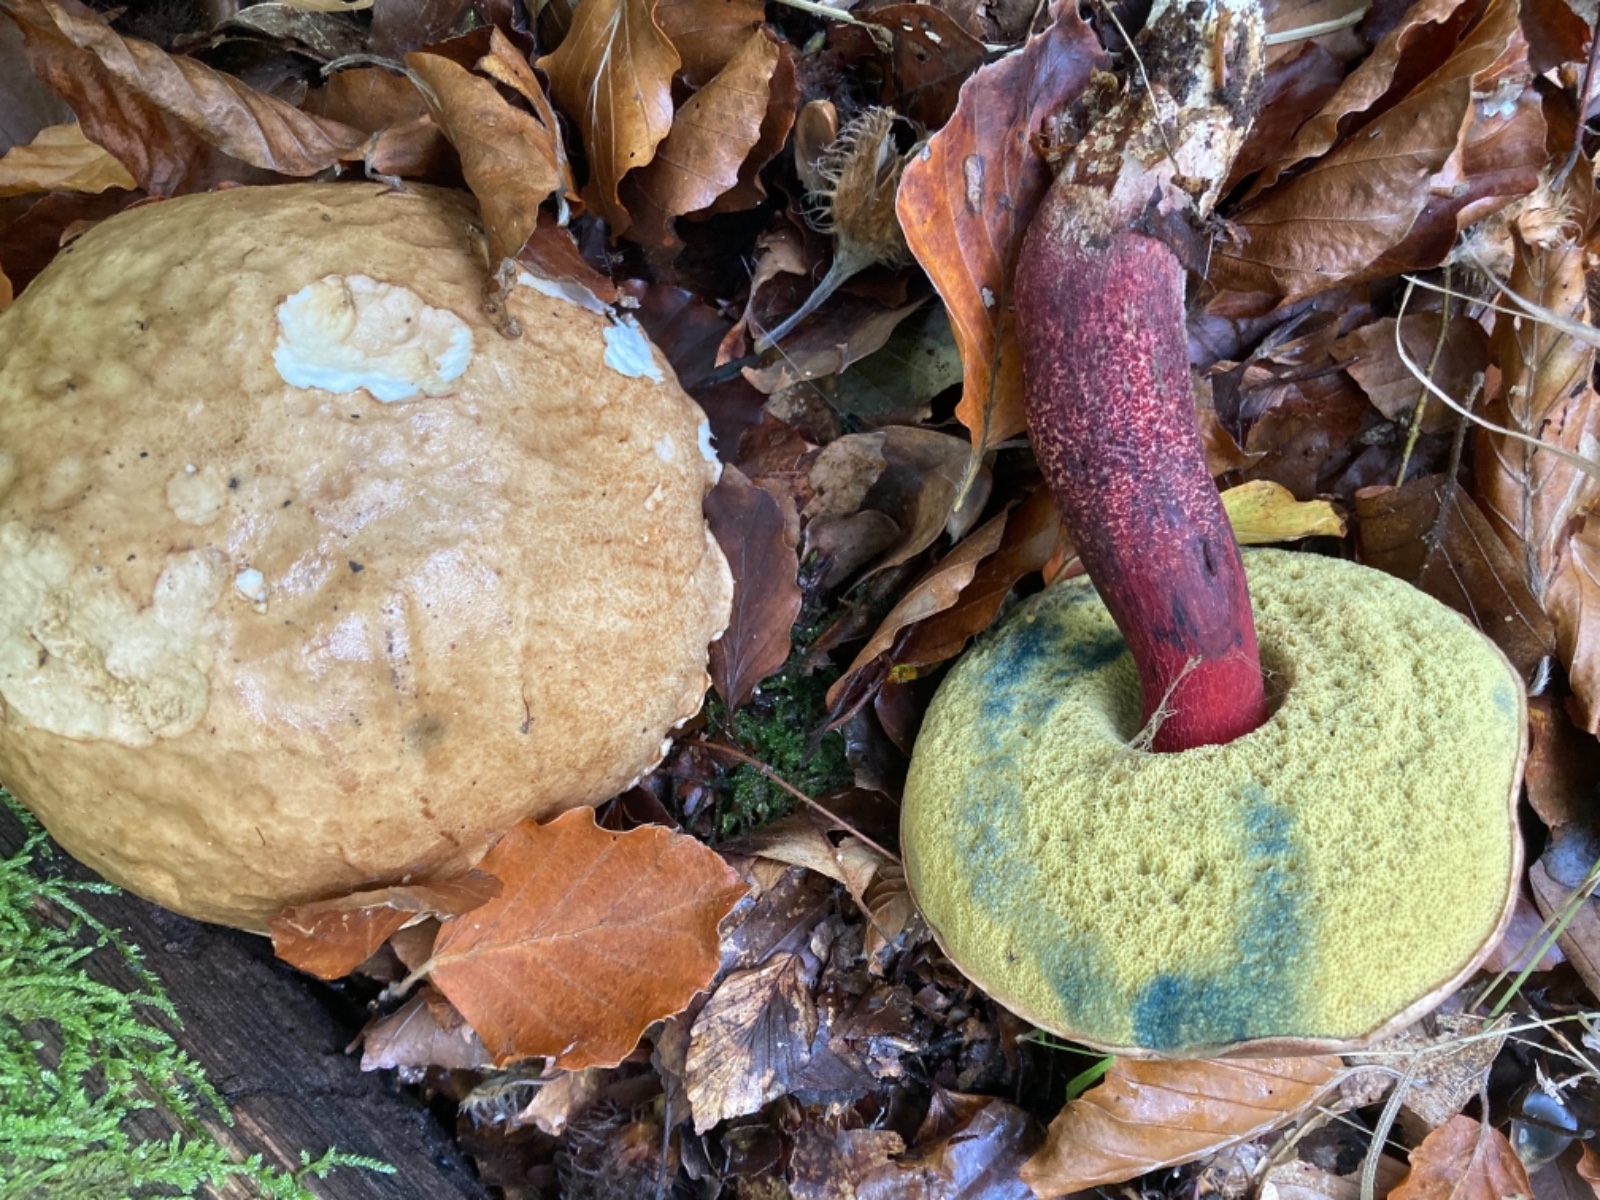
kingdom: Fungi
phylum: Basidiomycota
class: Agaricomycetes
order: Boletales
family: Boletaceae
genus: Caloboletus
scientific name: Caloboletus calopus
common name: skønfodet rørhat
